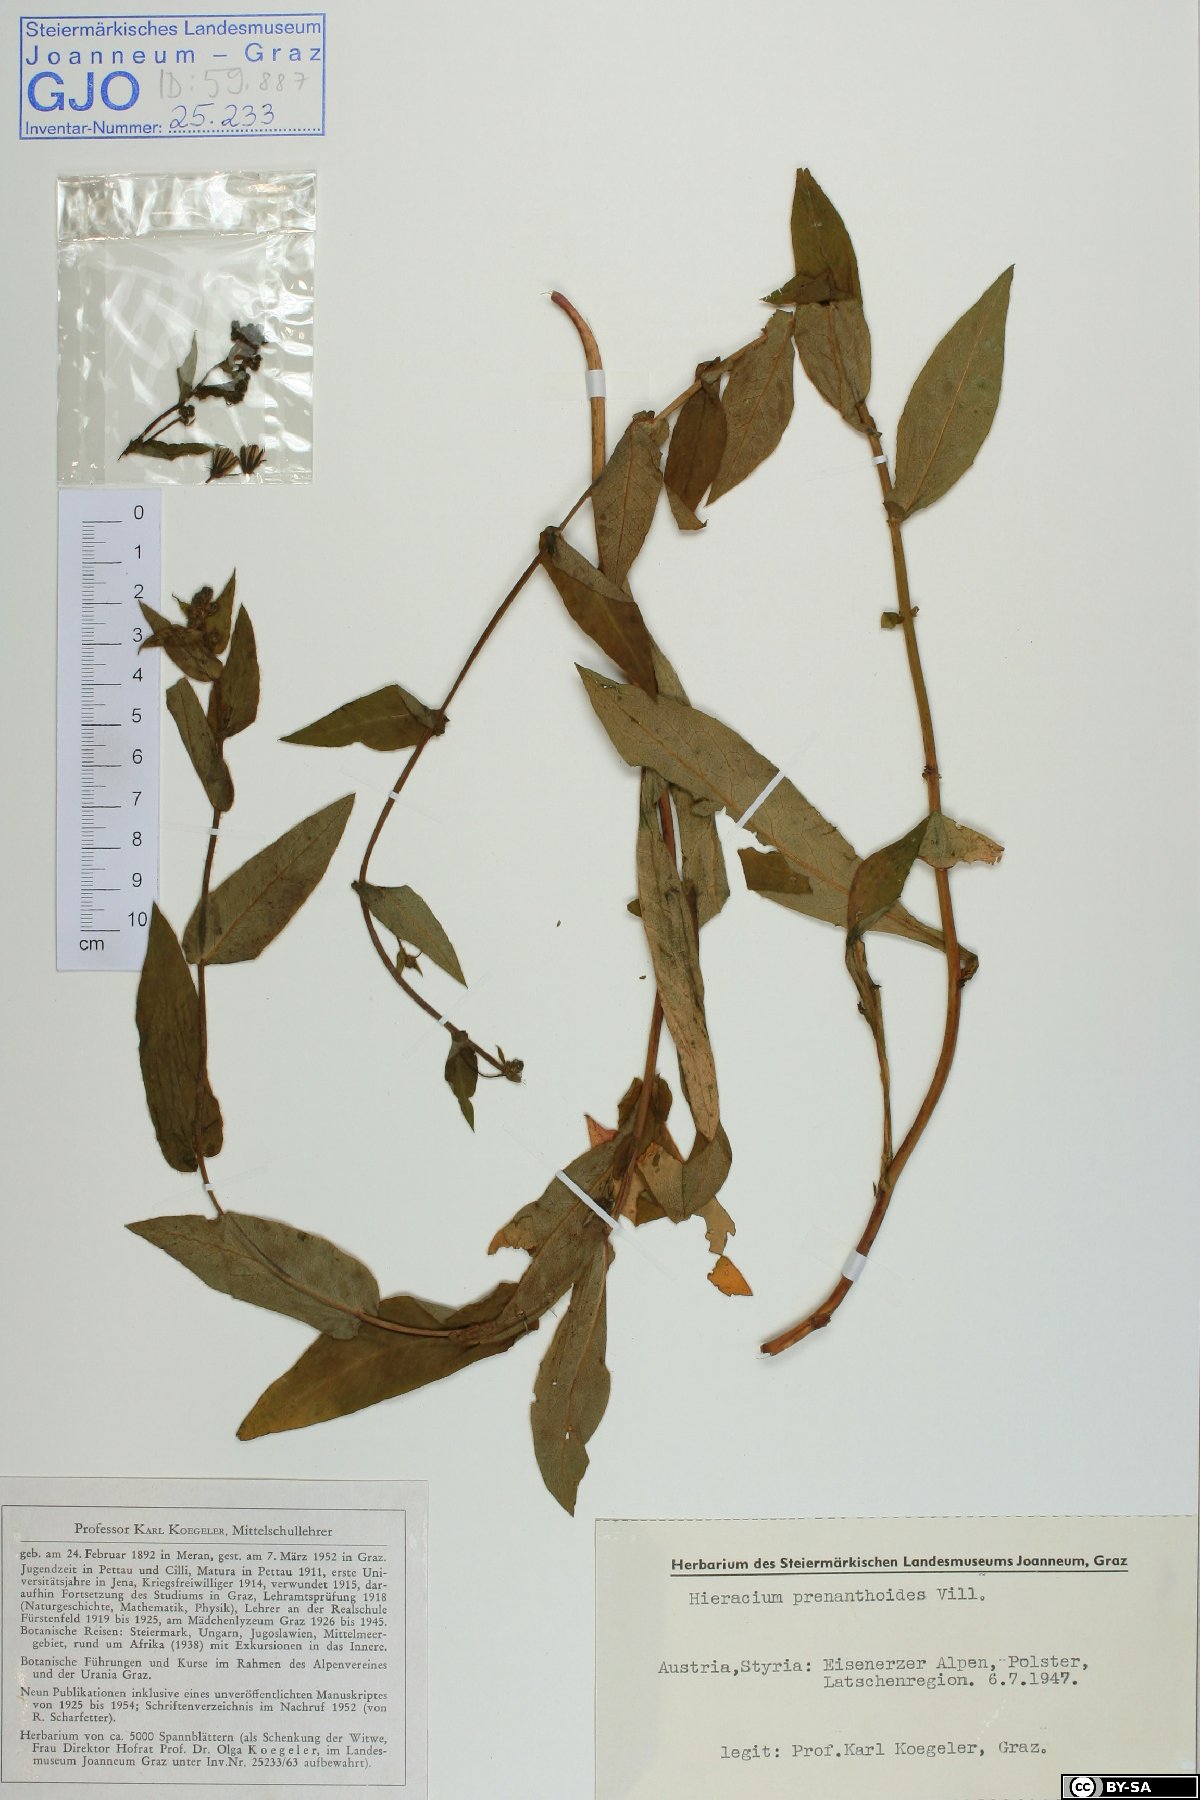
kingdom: Plantae
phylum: Tracheophyta
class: Magnoliopsida
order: Asterales
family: Asteraceae
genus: Hieracium
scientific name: Hieracium prenanthoides
